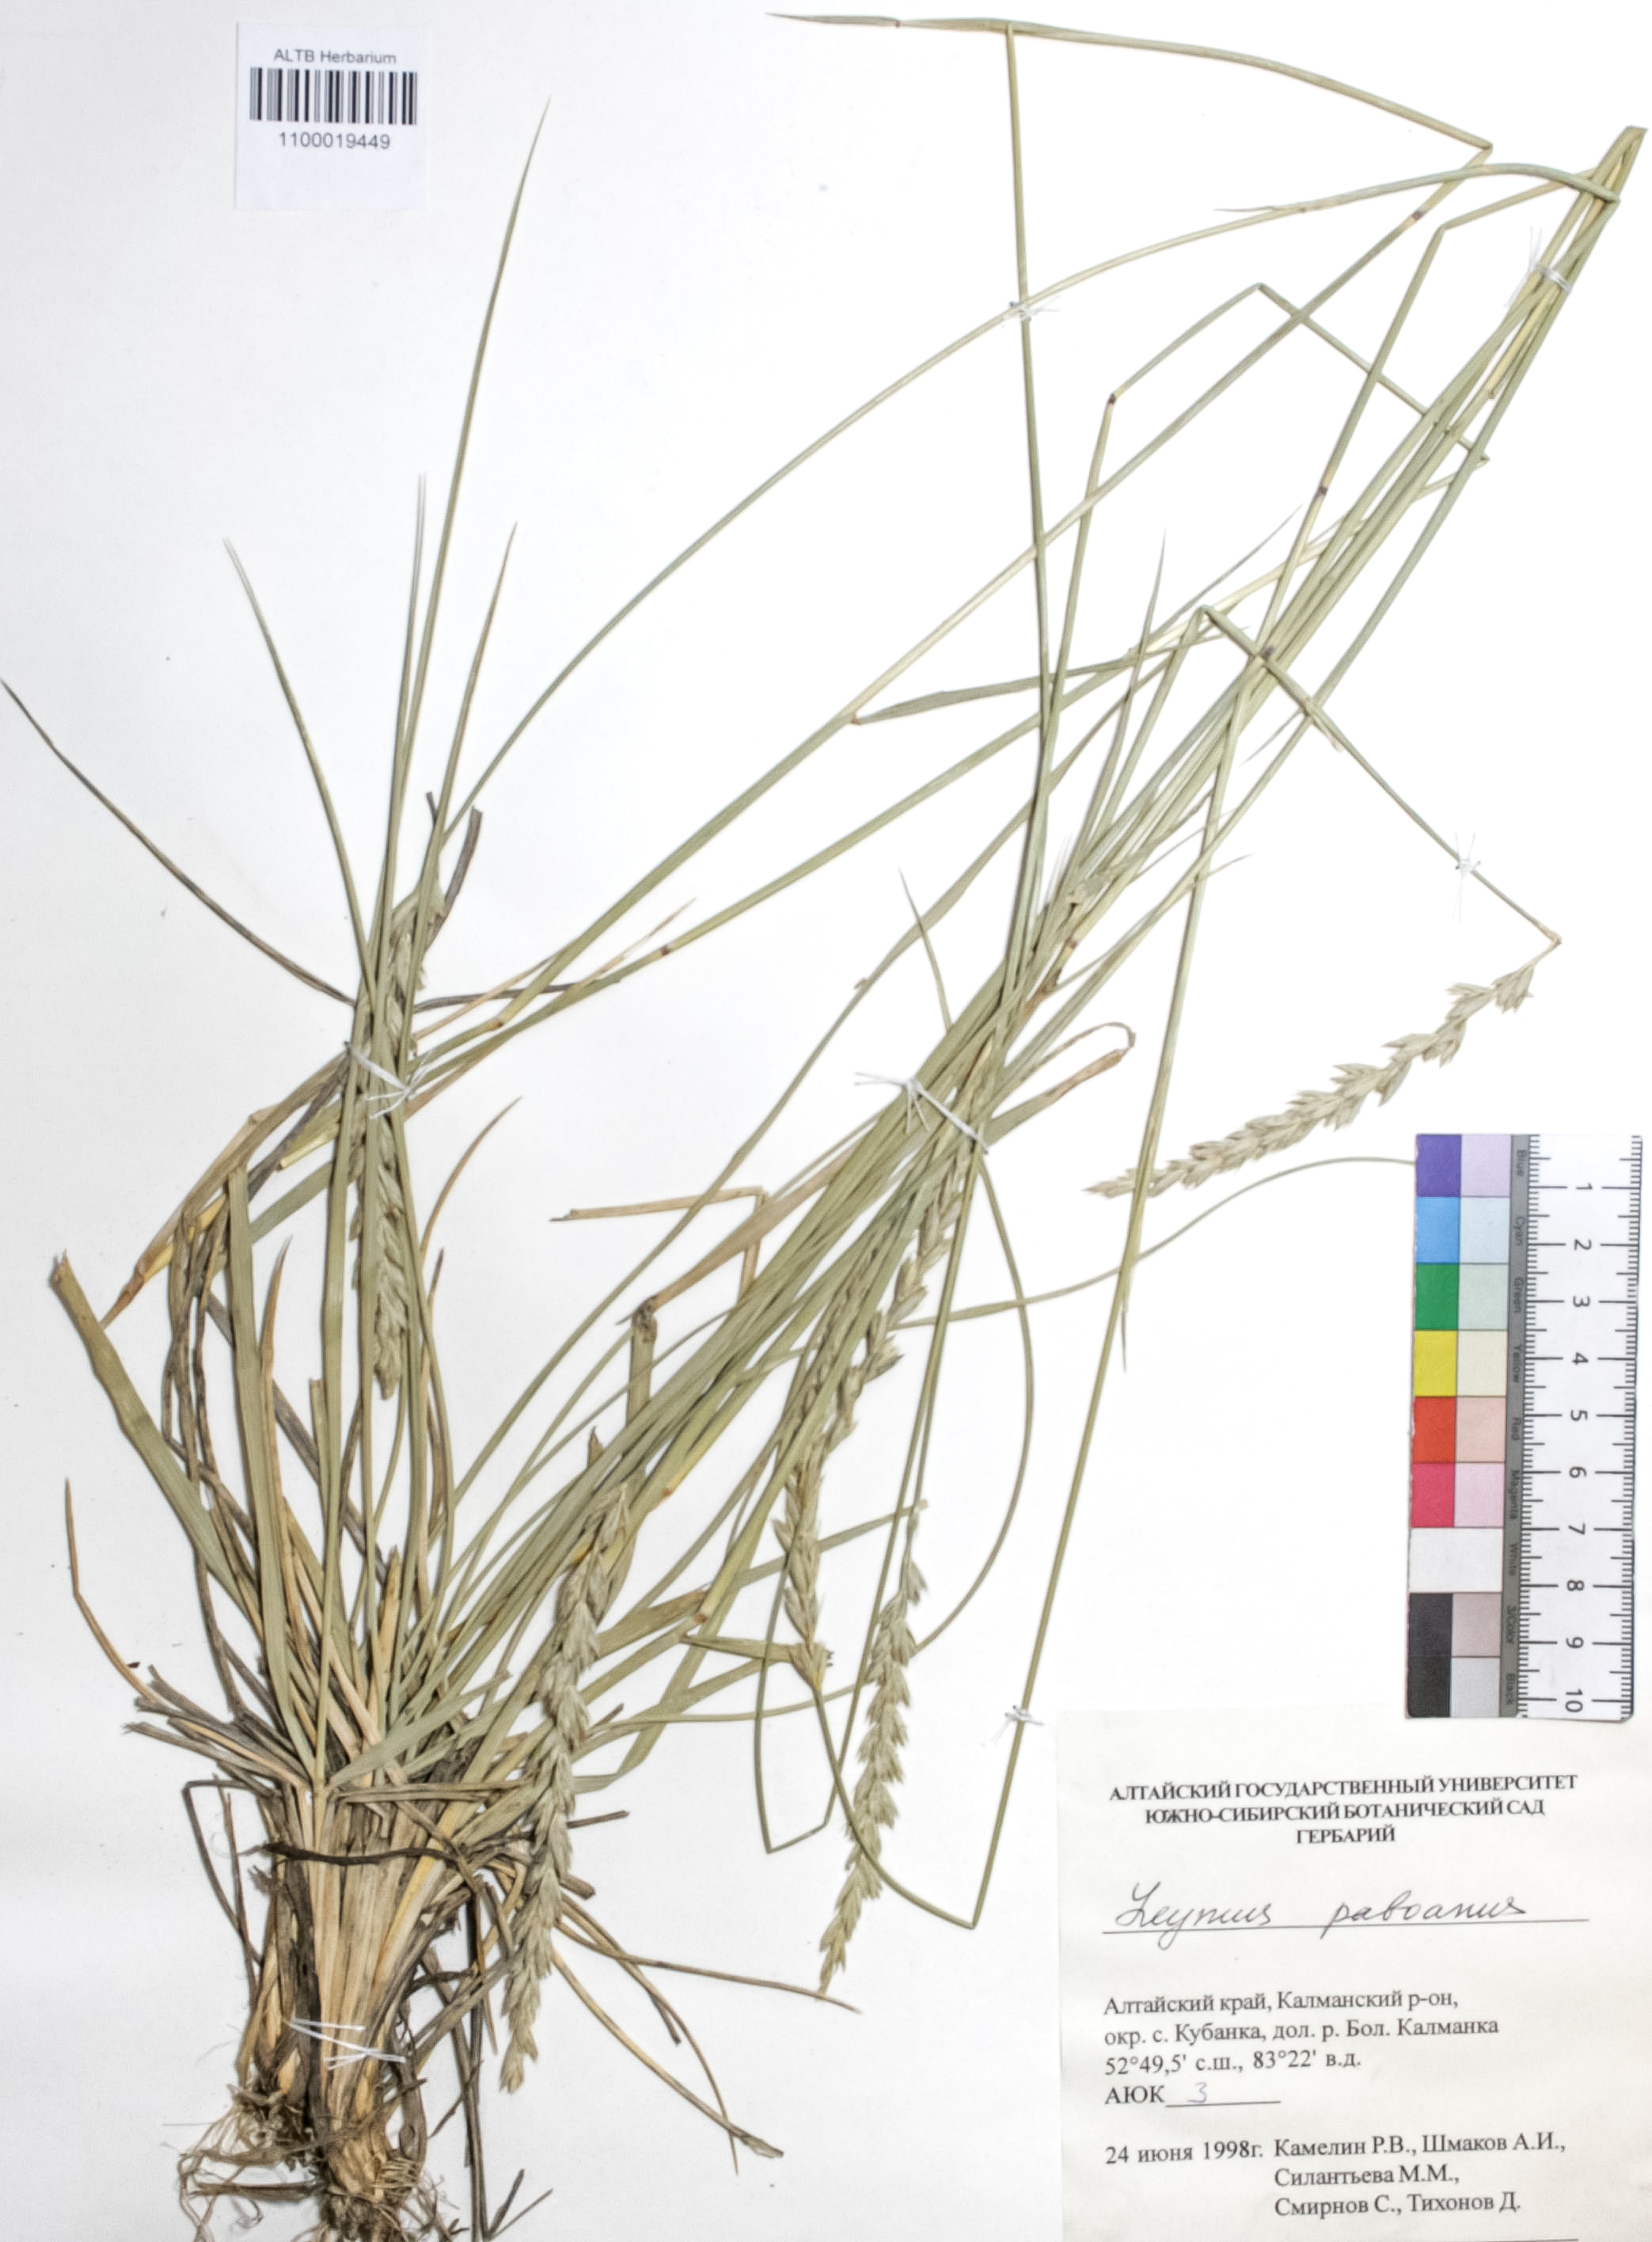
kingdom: Plantae
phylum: Tracheophyta
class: Liliopsida
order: Poales
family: Poaceae
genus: Leymus
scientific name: Leymus paboanus
